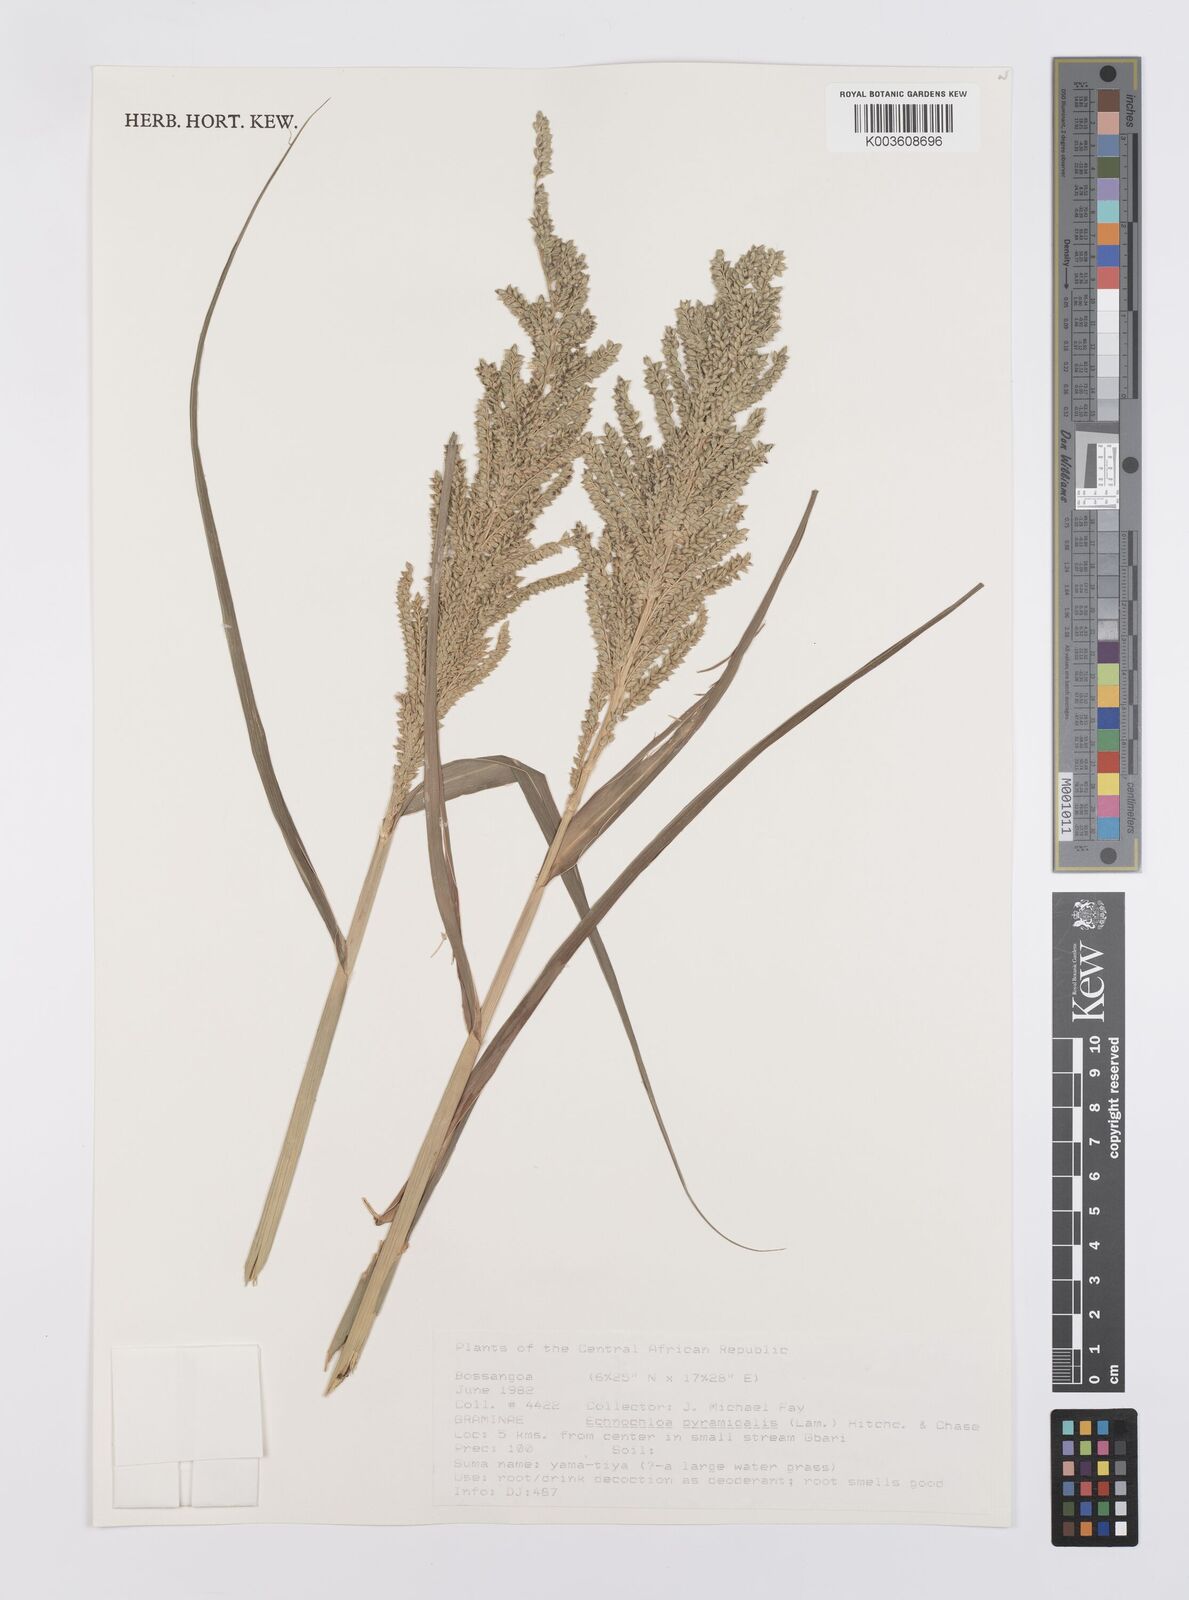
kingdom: Plantae
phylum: Tracheophyta
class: Liliopsida
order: Poales
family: Poaceae
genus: Echinochloa
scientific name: Echinochloa pyramidalis
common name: Antelope grass
